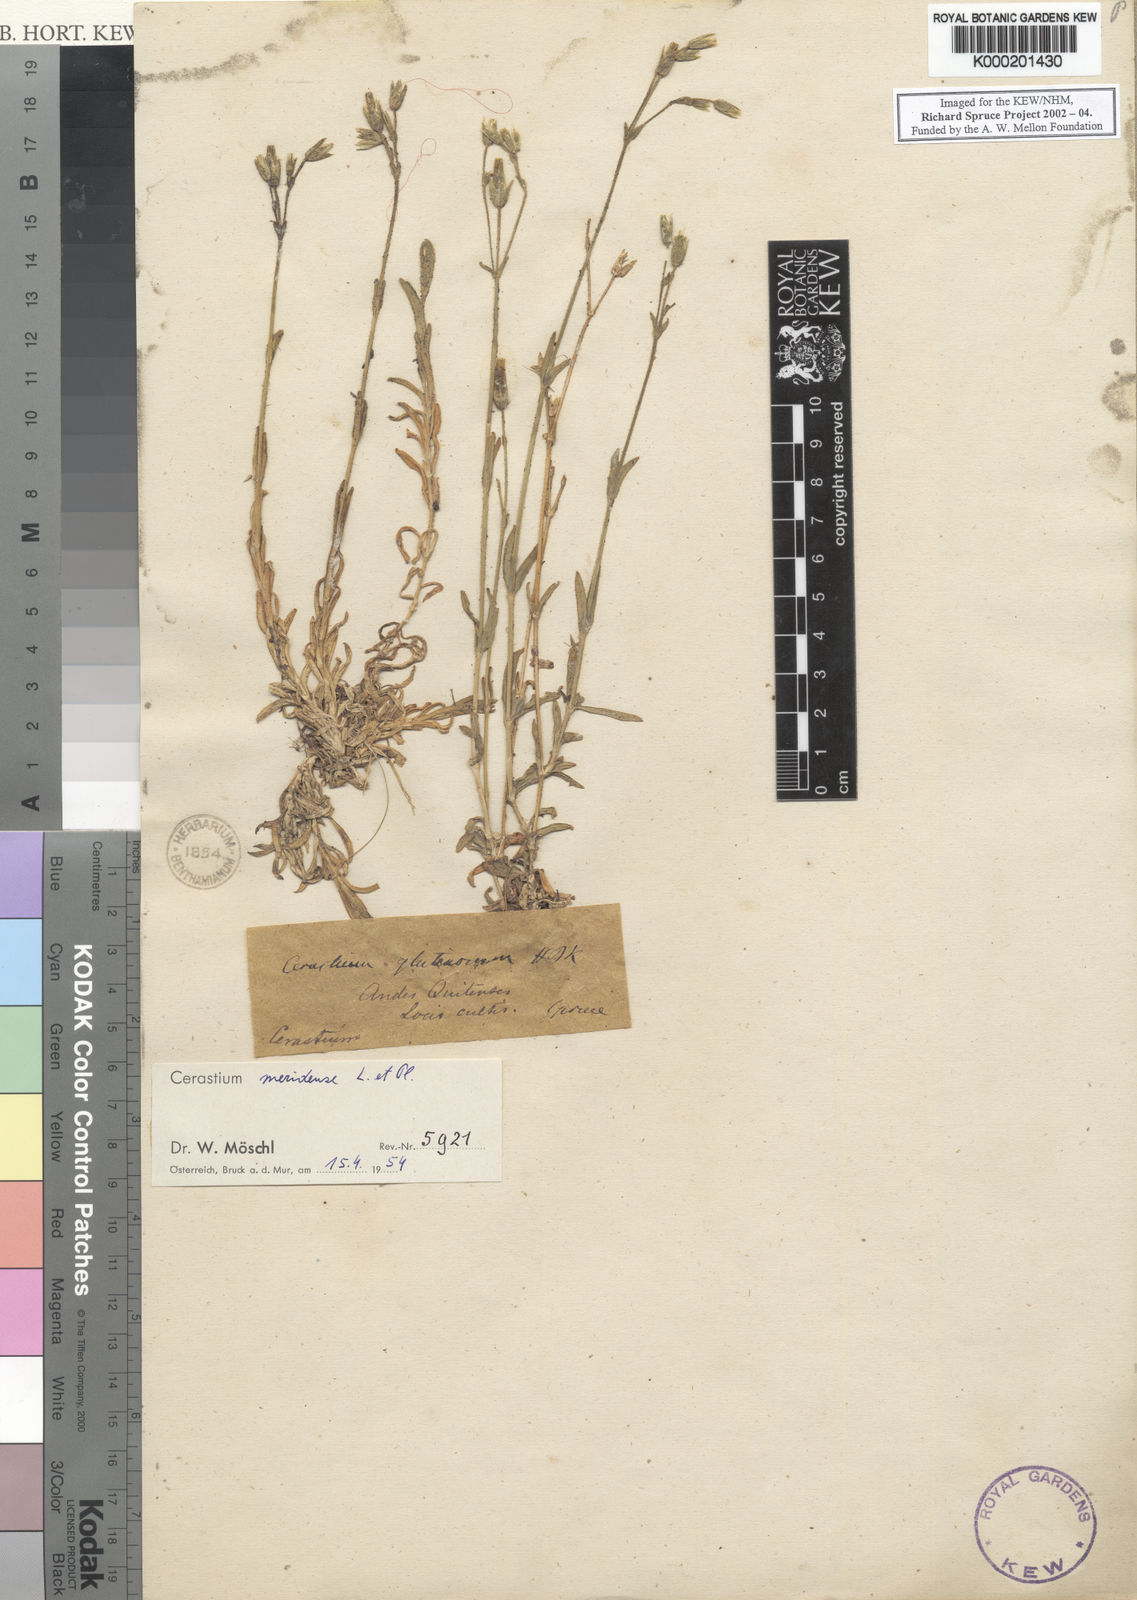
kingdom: Plantae
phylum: Tracheophyta
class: Magnoliopsida
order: Caryophyllales
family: Caryophyllaceae
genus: Cerastium
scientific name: Cerastium meridense
